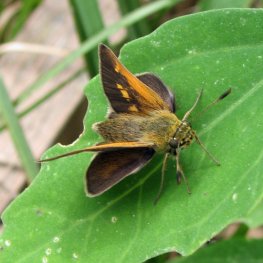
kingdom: Animalia
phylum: Arthropoda
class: Insecta
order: Lepidoptera
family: Hesperiidae
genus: Polites
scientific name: Polites themistocles
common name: Tawny-edged Skipper
